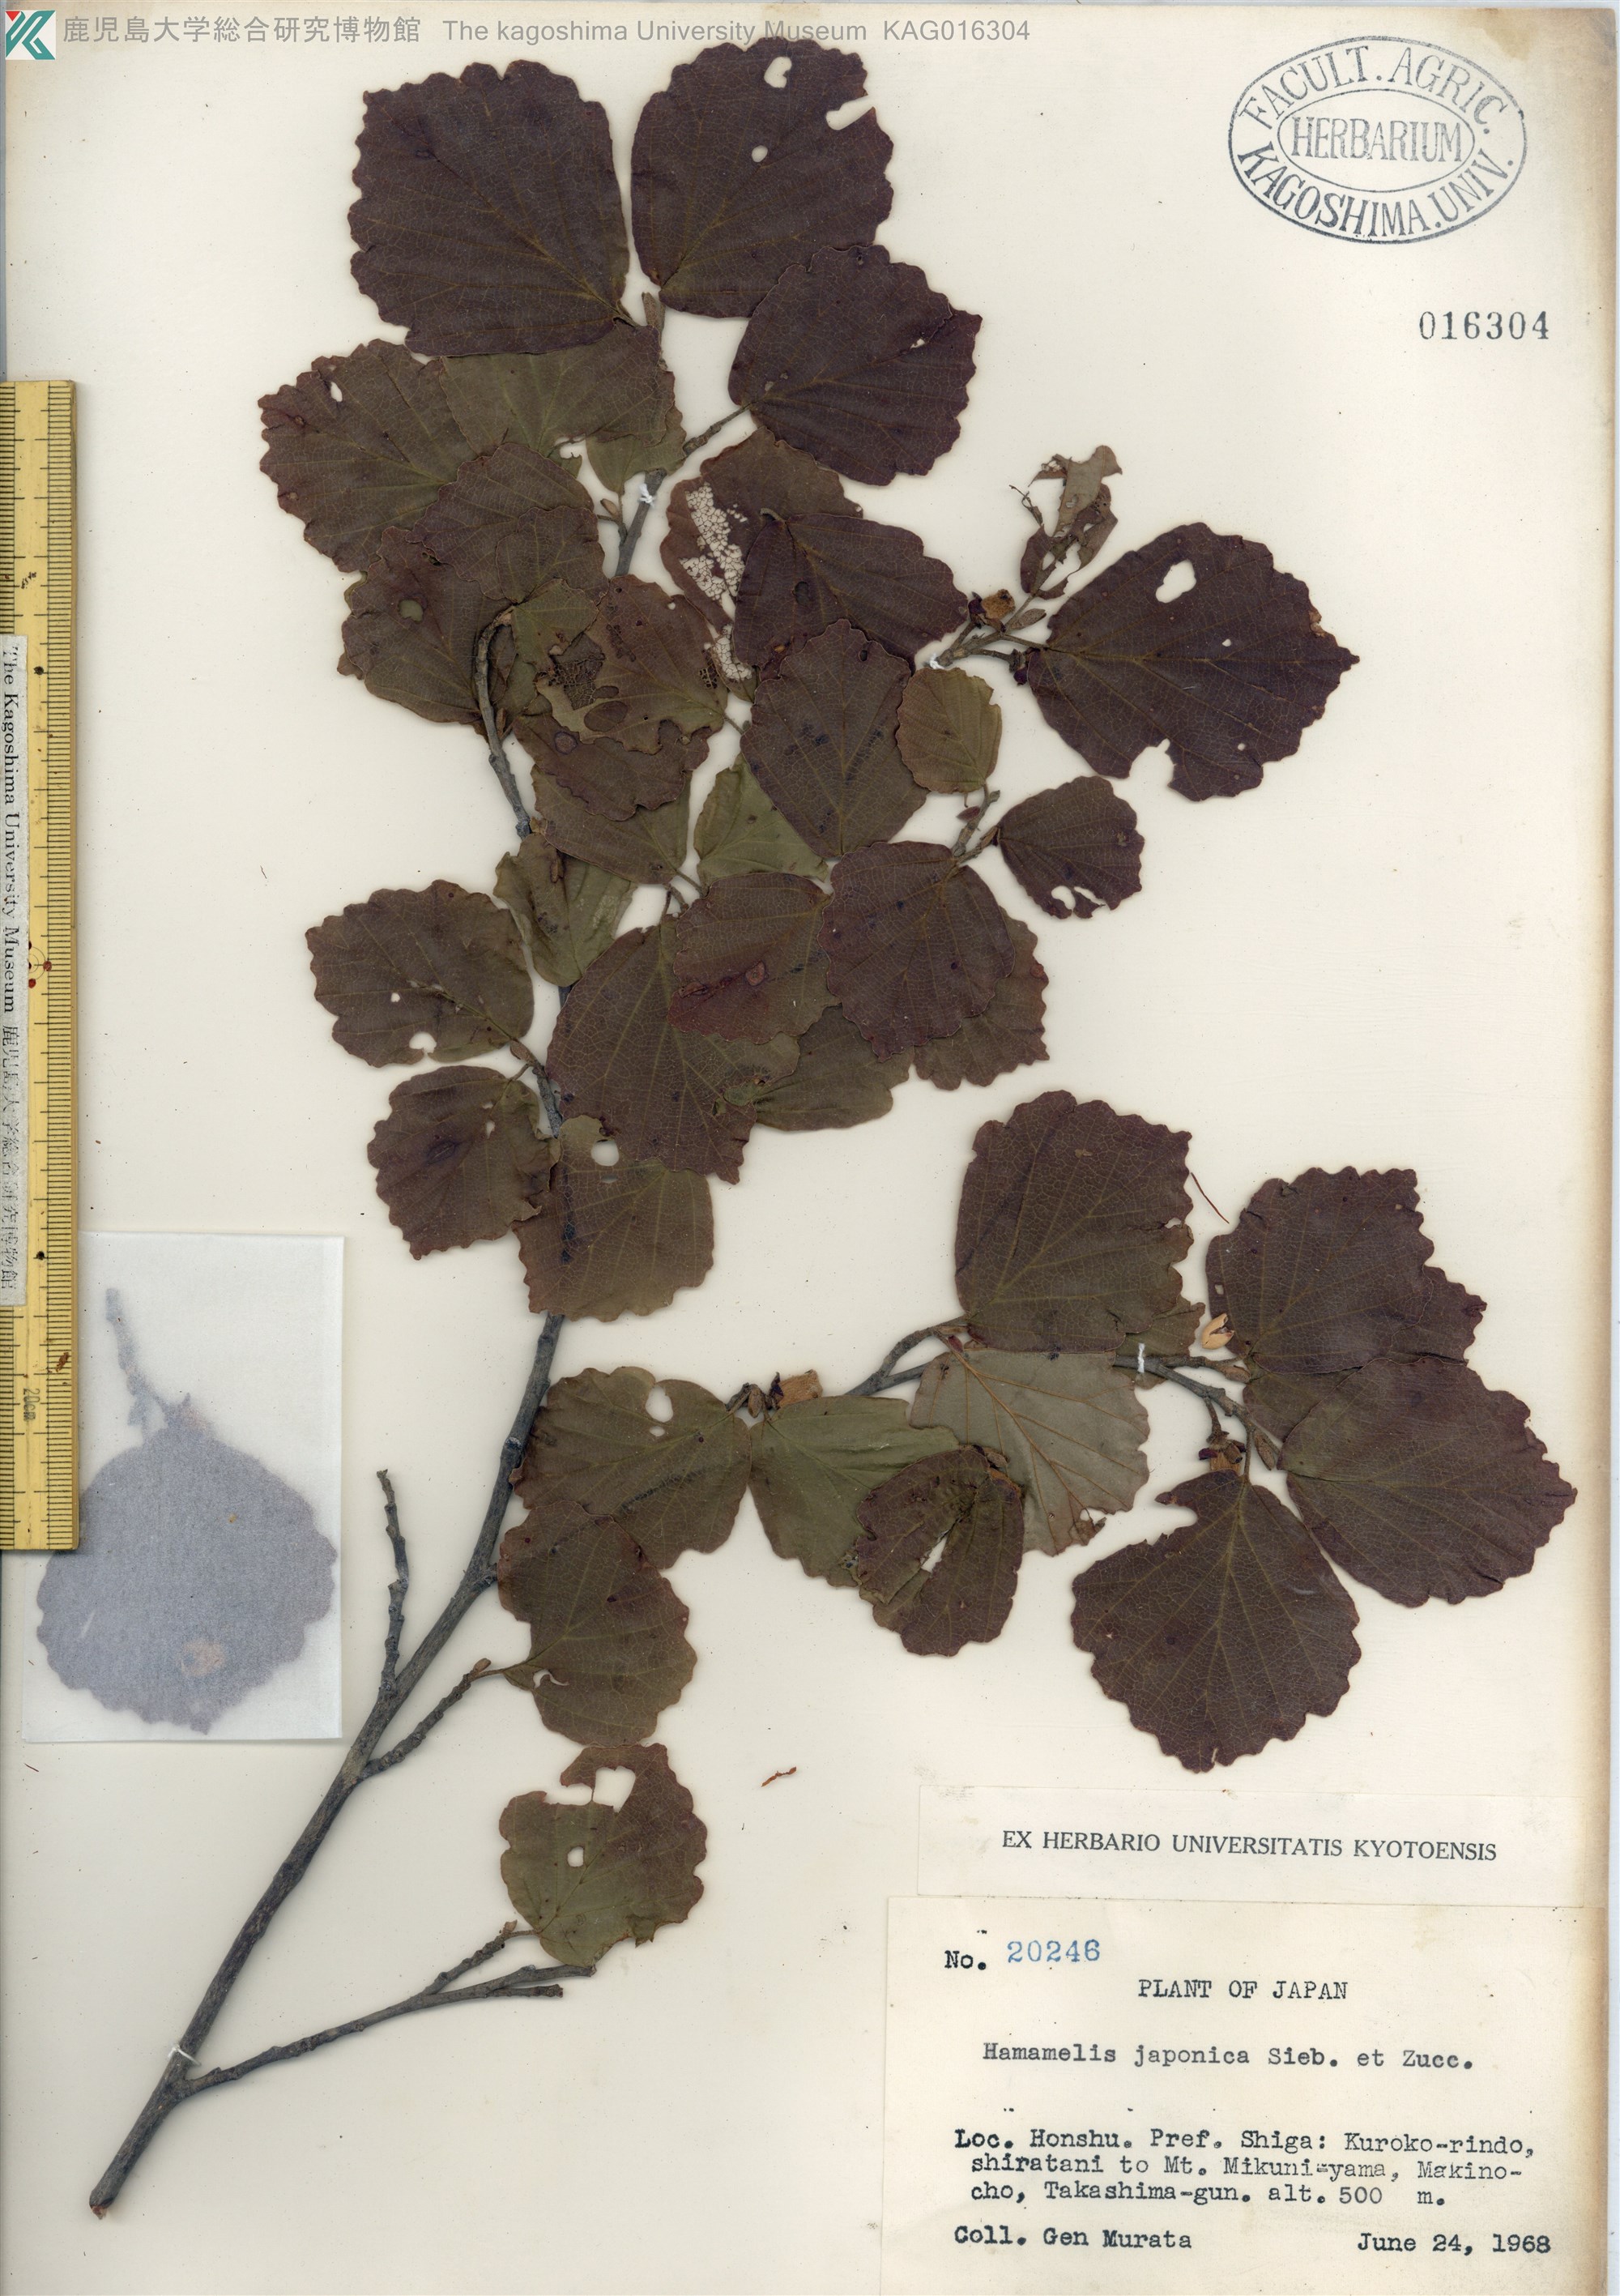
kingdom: Plantae
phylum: Tracheophyta
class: Magnoliopsida
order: Saxifragales
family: Hamamelidaceae
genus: Hamamelis
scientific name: Hamamelis japonica
